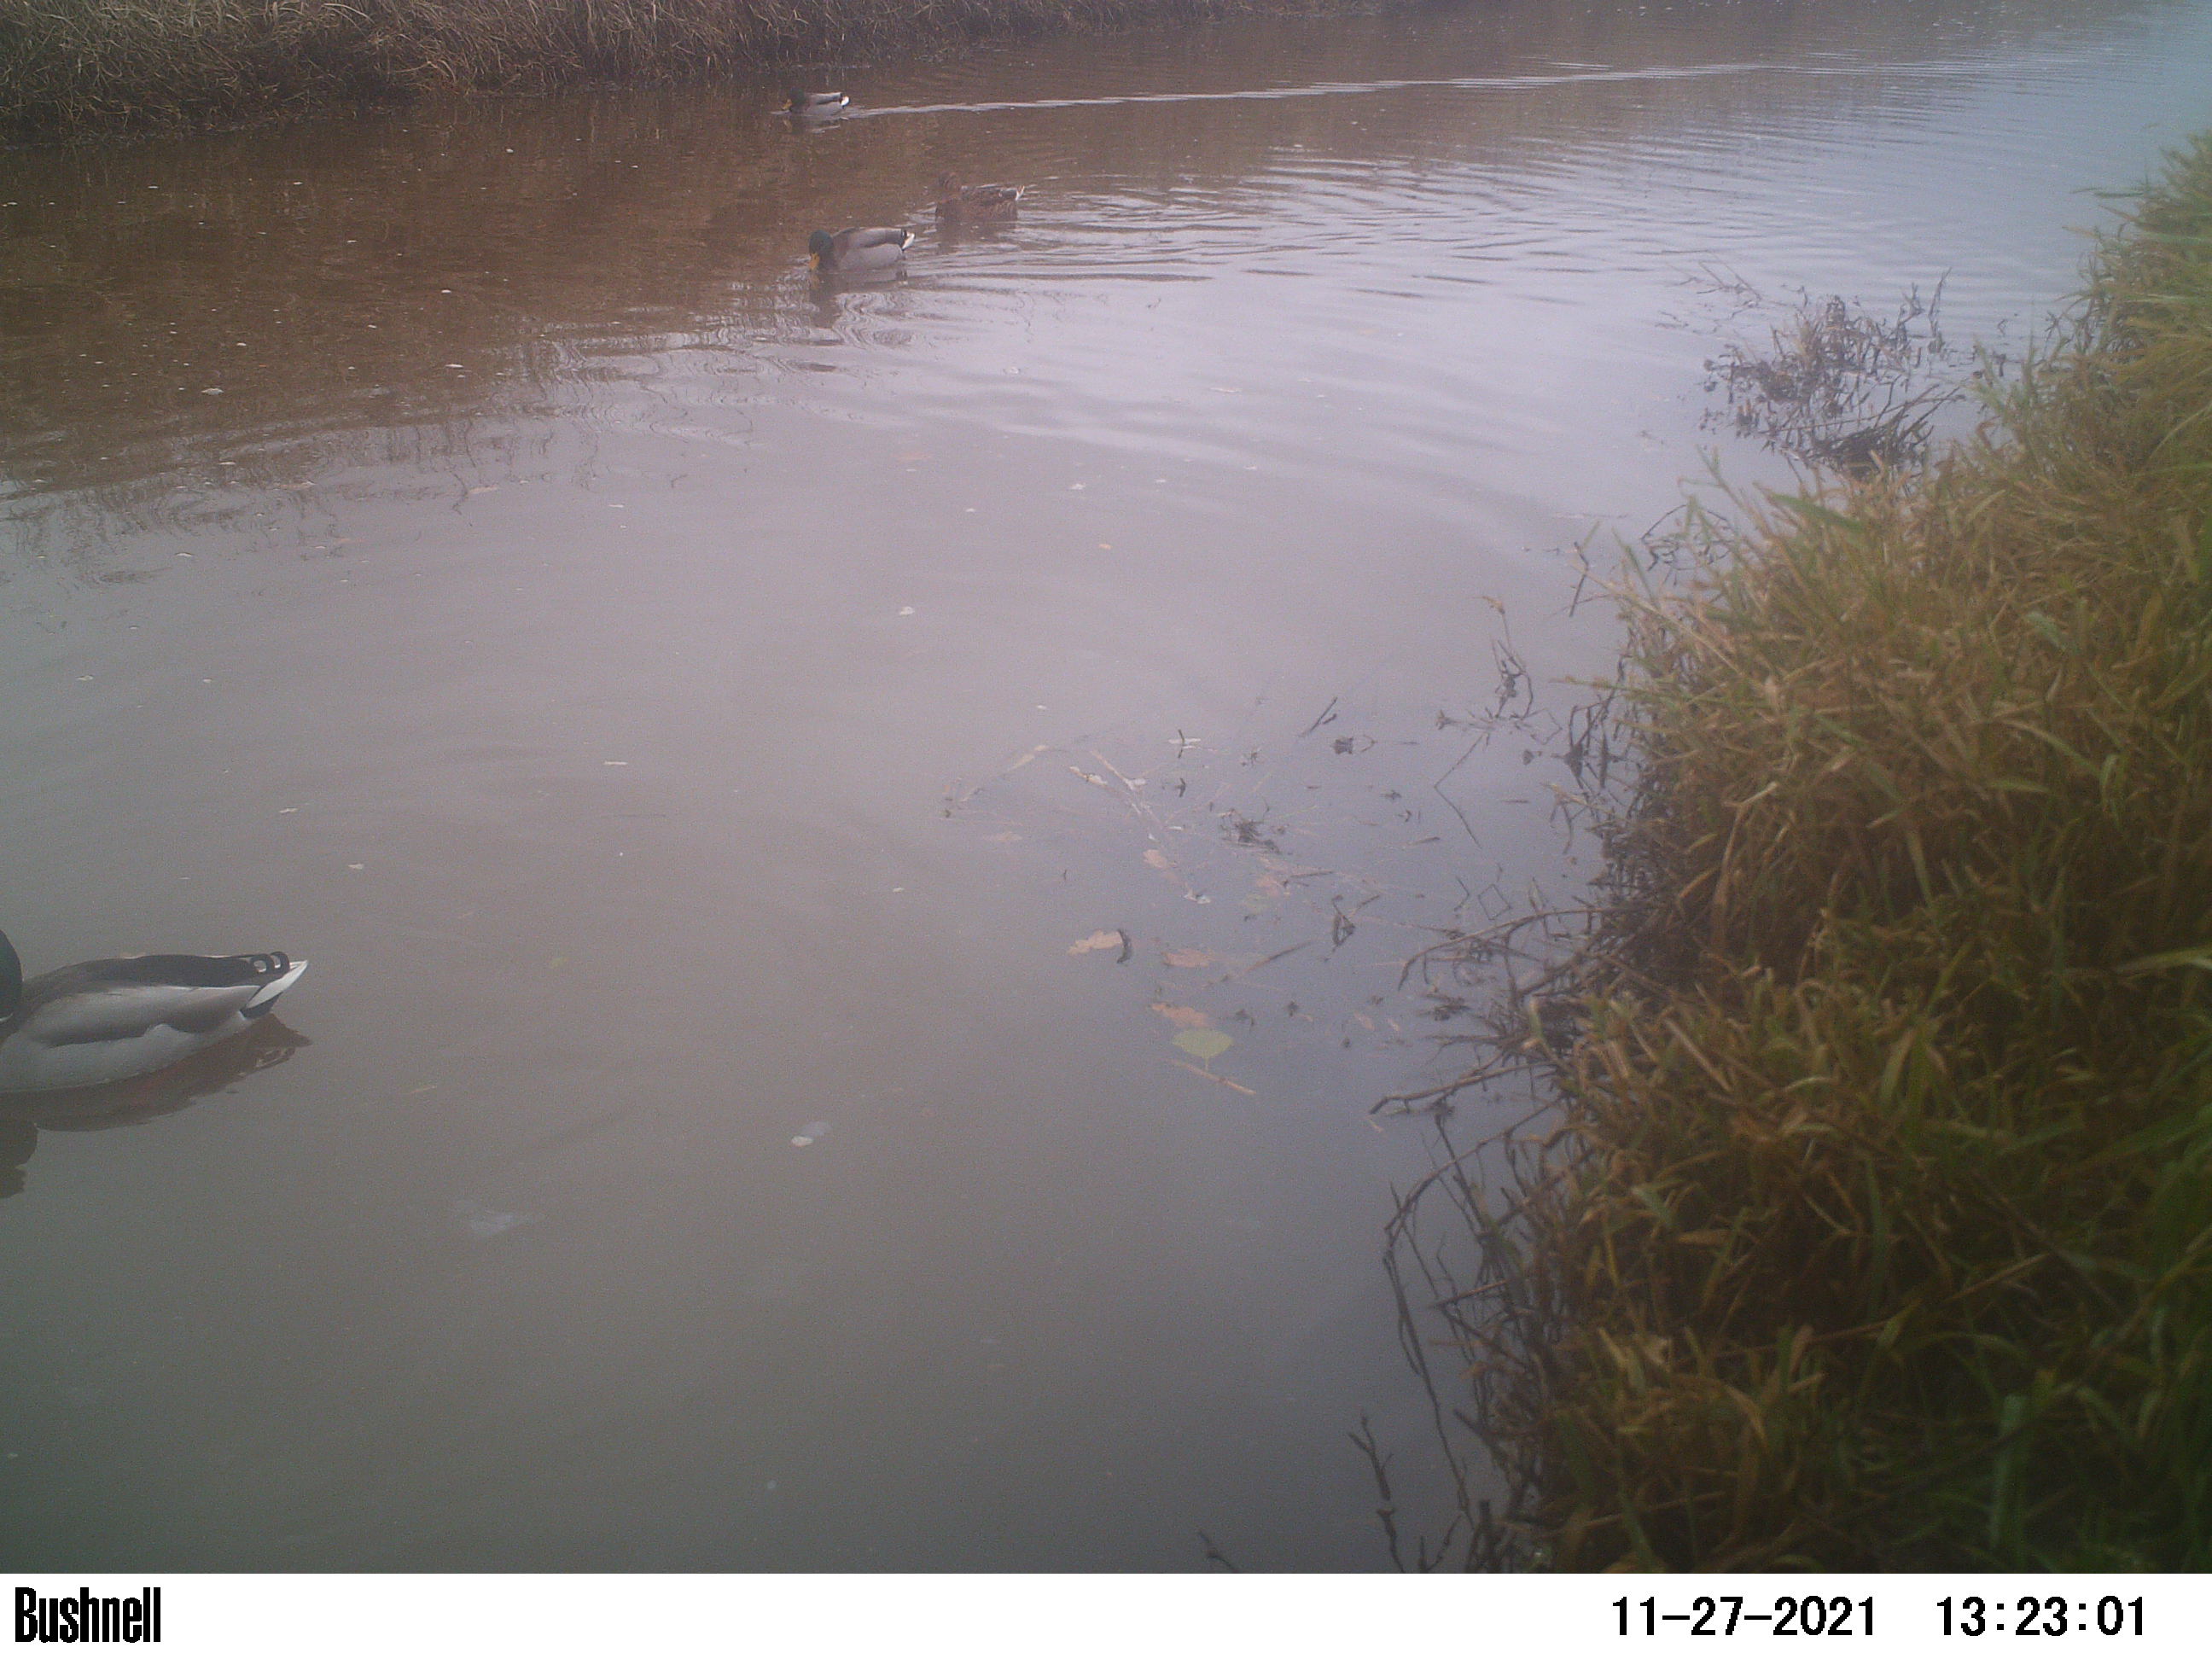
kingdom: Animalia
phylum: Chordata
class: Aves
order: Anseriformes
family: Anatidae
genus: Anas
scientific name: Anas
